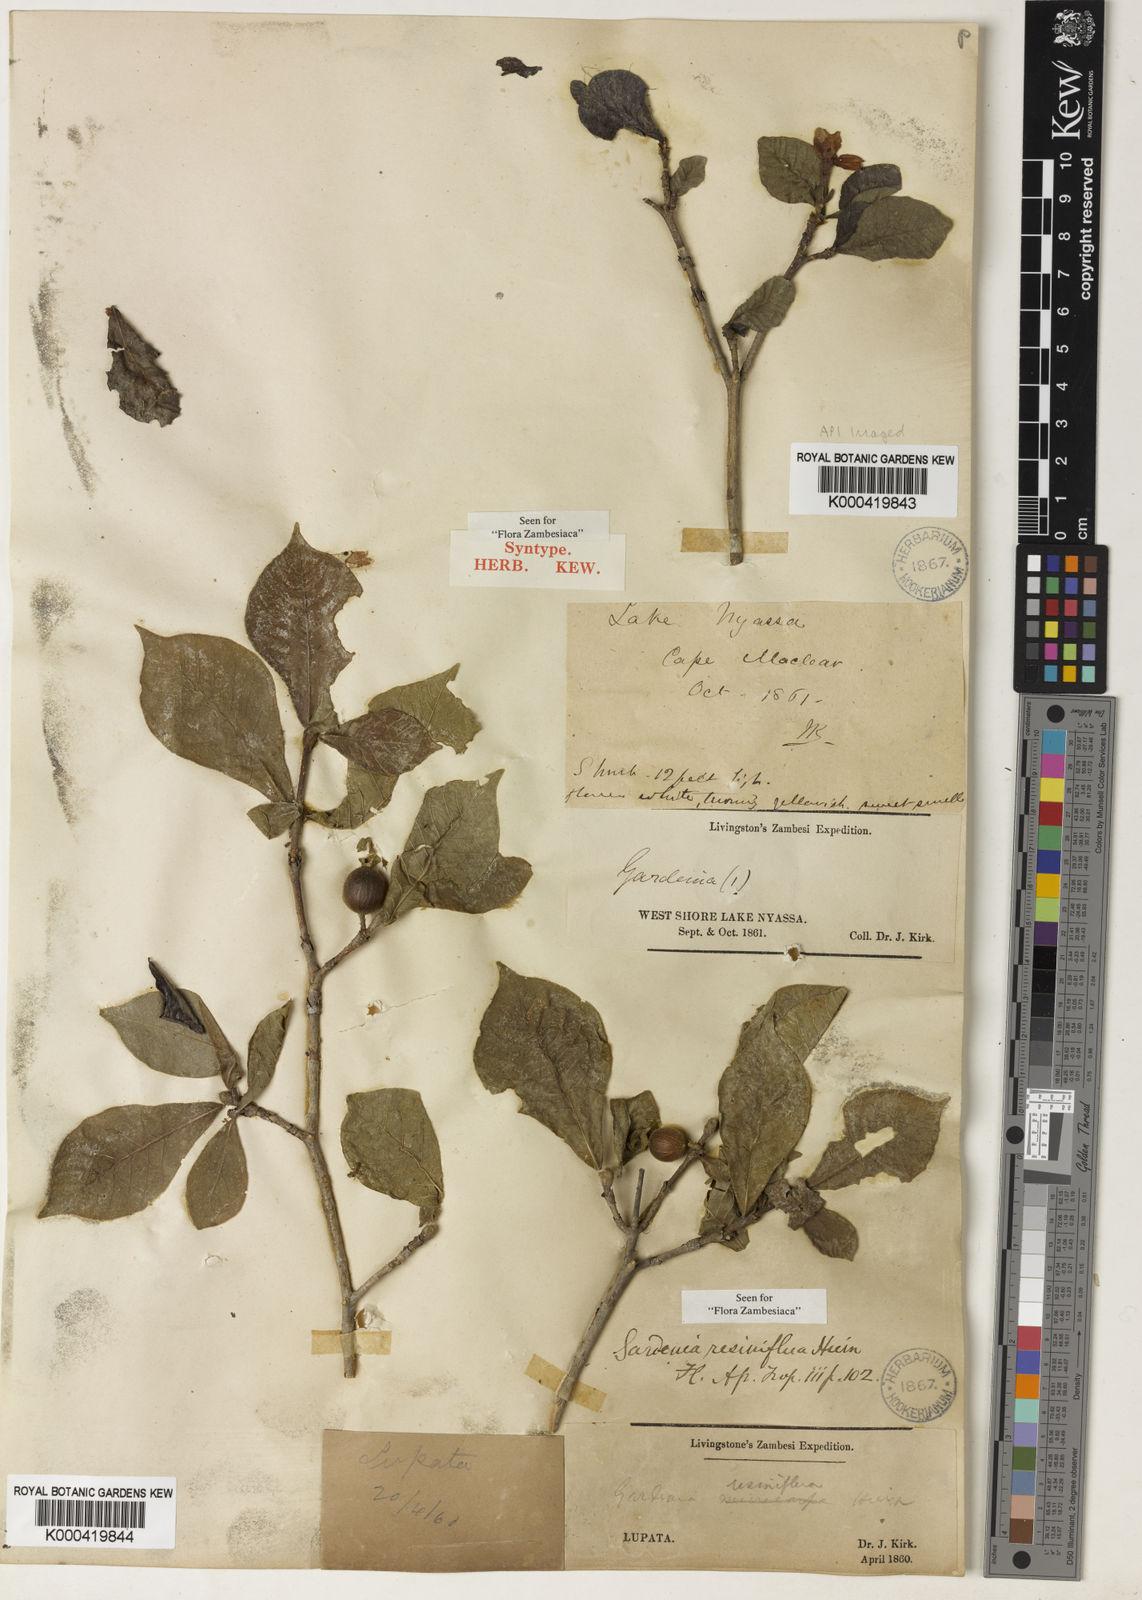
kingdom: Plantae
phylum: Tracheophyta
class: Magnoliopsida
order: Gentianales
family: Rubiaceae
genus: Gardenia
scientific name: Gardenia resiniflua
